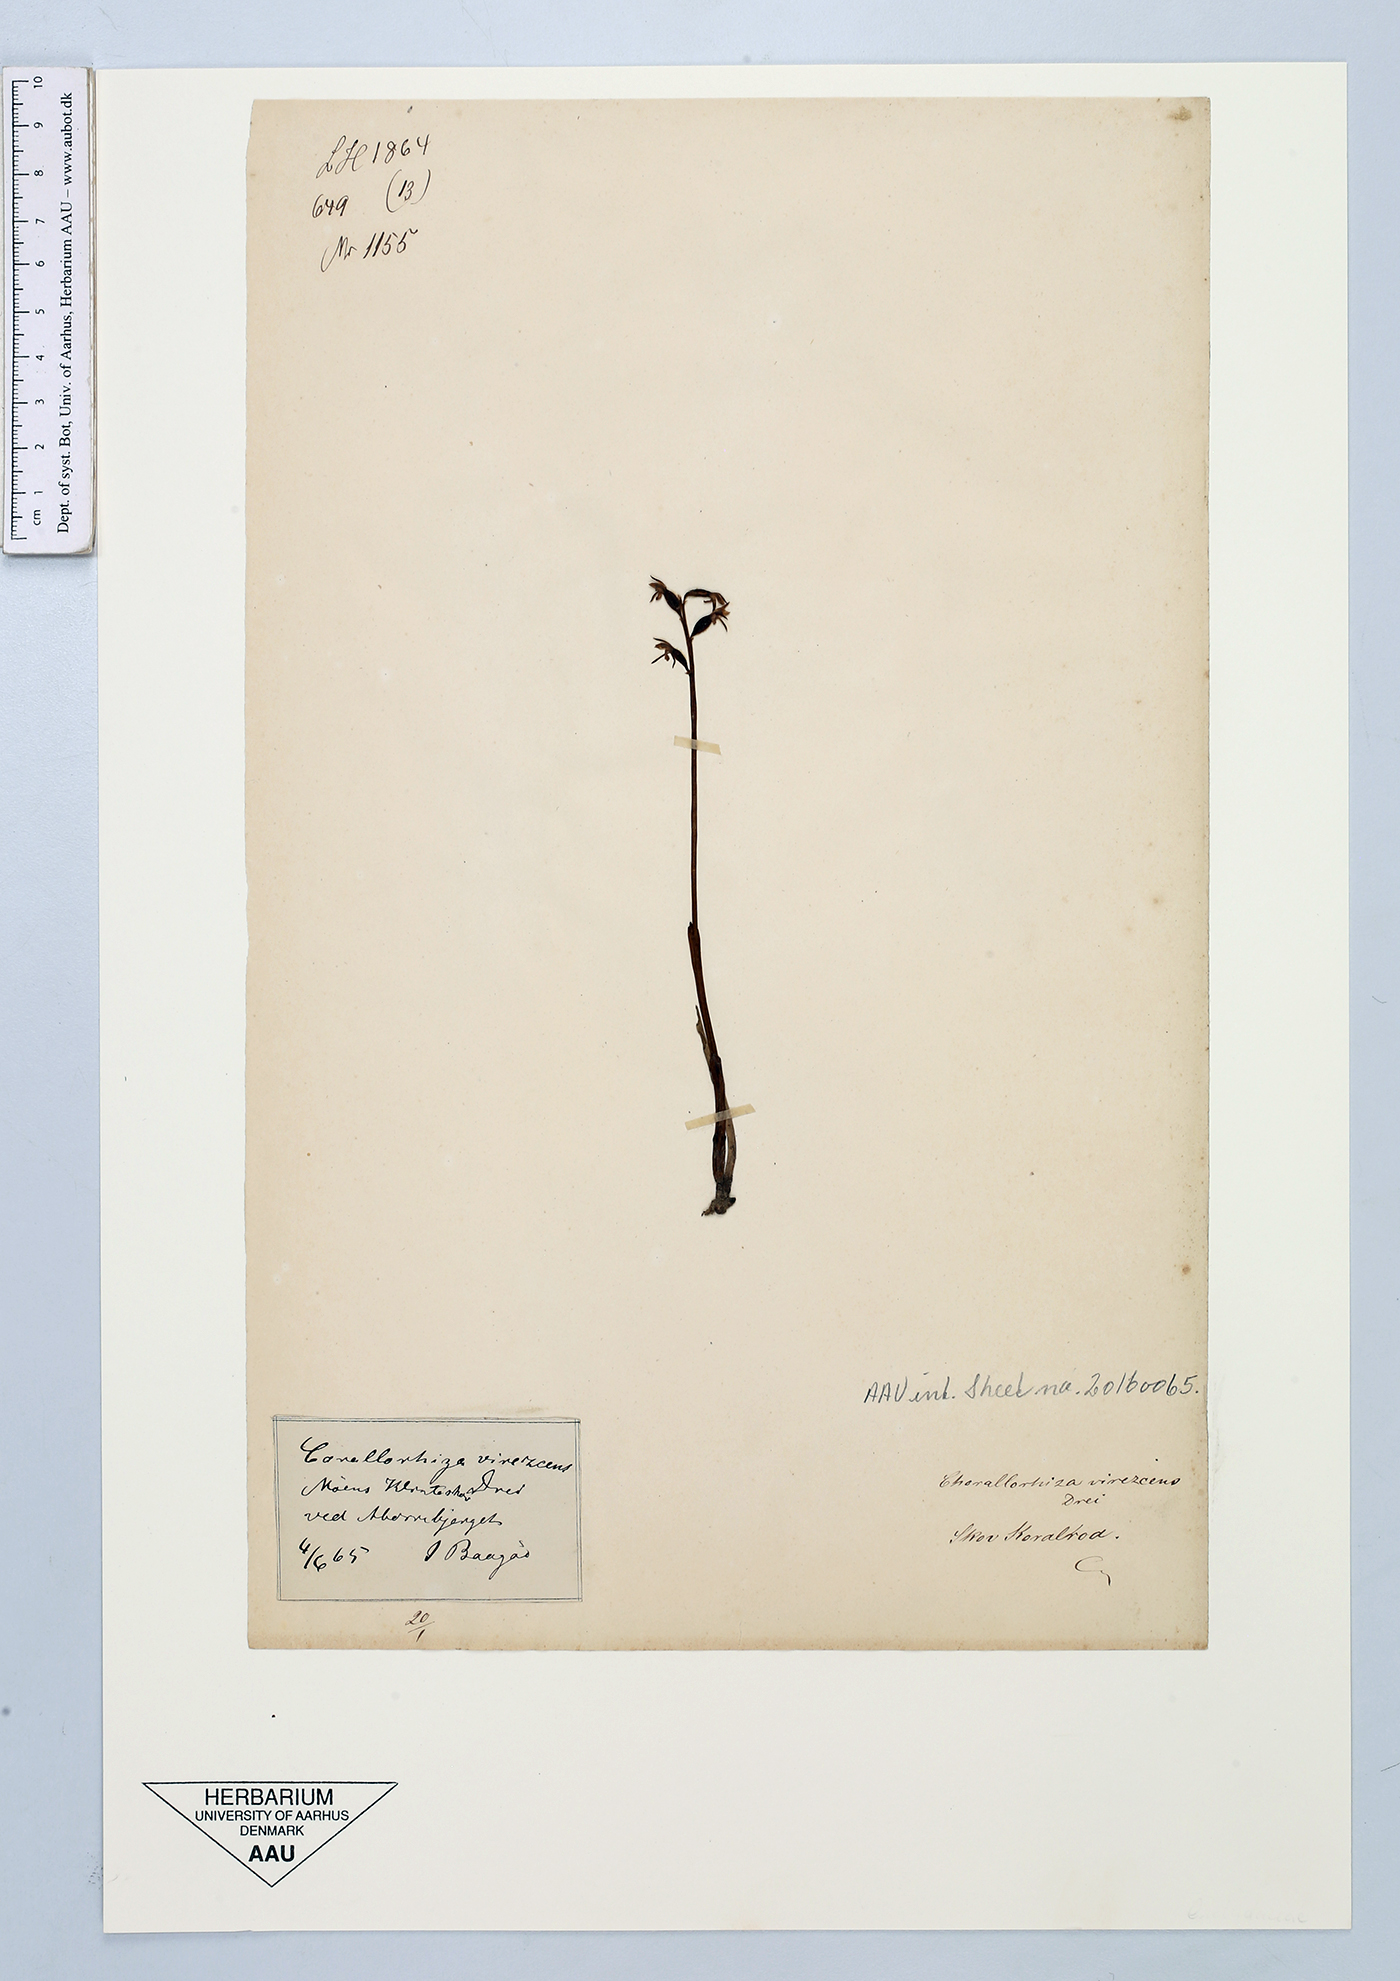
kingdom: Plantae
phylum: Tracheophyta
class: Liliopsida
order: Asparagales
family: Orchidaceae
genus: Corallorhiza
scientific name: Corallorhiza trifida
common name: Yellow coralroot
